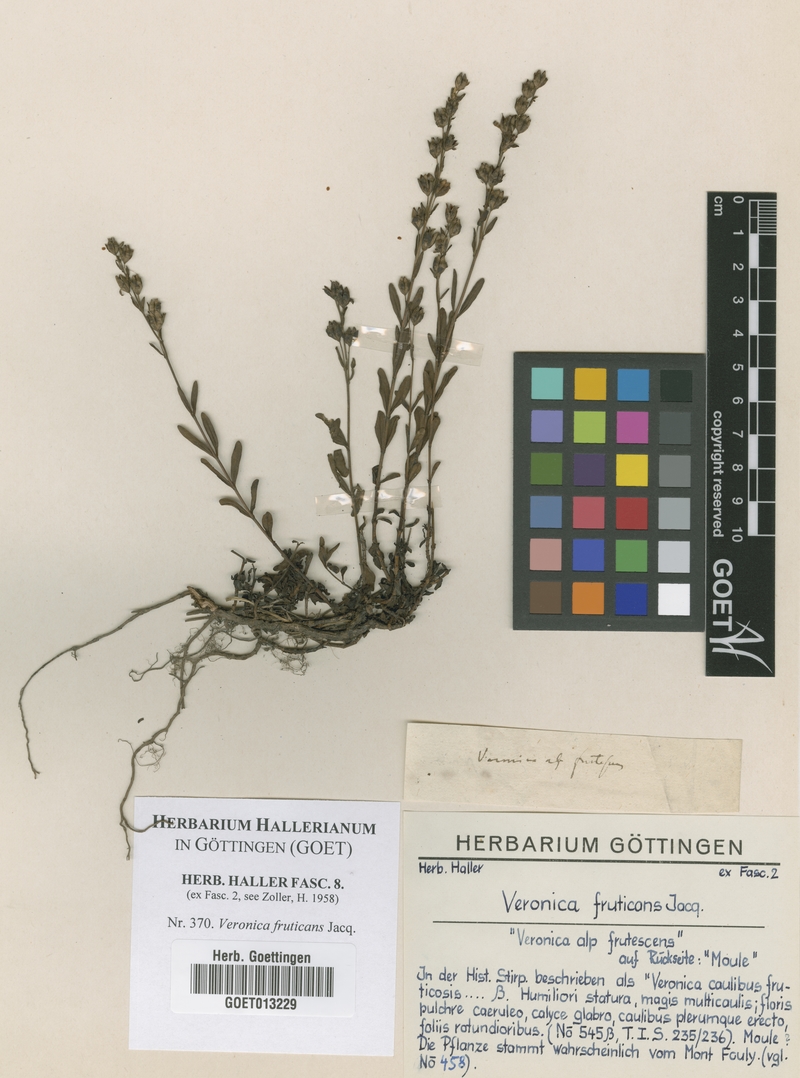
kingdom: Plantae
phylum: Tracheophyta
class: Magnoliopsida
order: Lamiales
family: Plantaginaceae
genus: Veronica
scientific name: Veronica fruticans
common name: Rock speedwell
